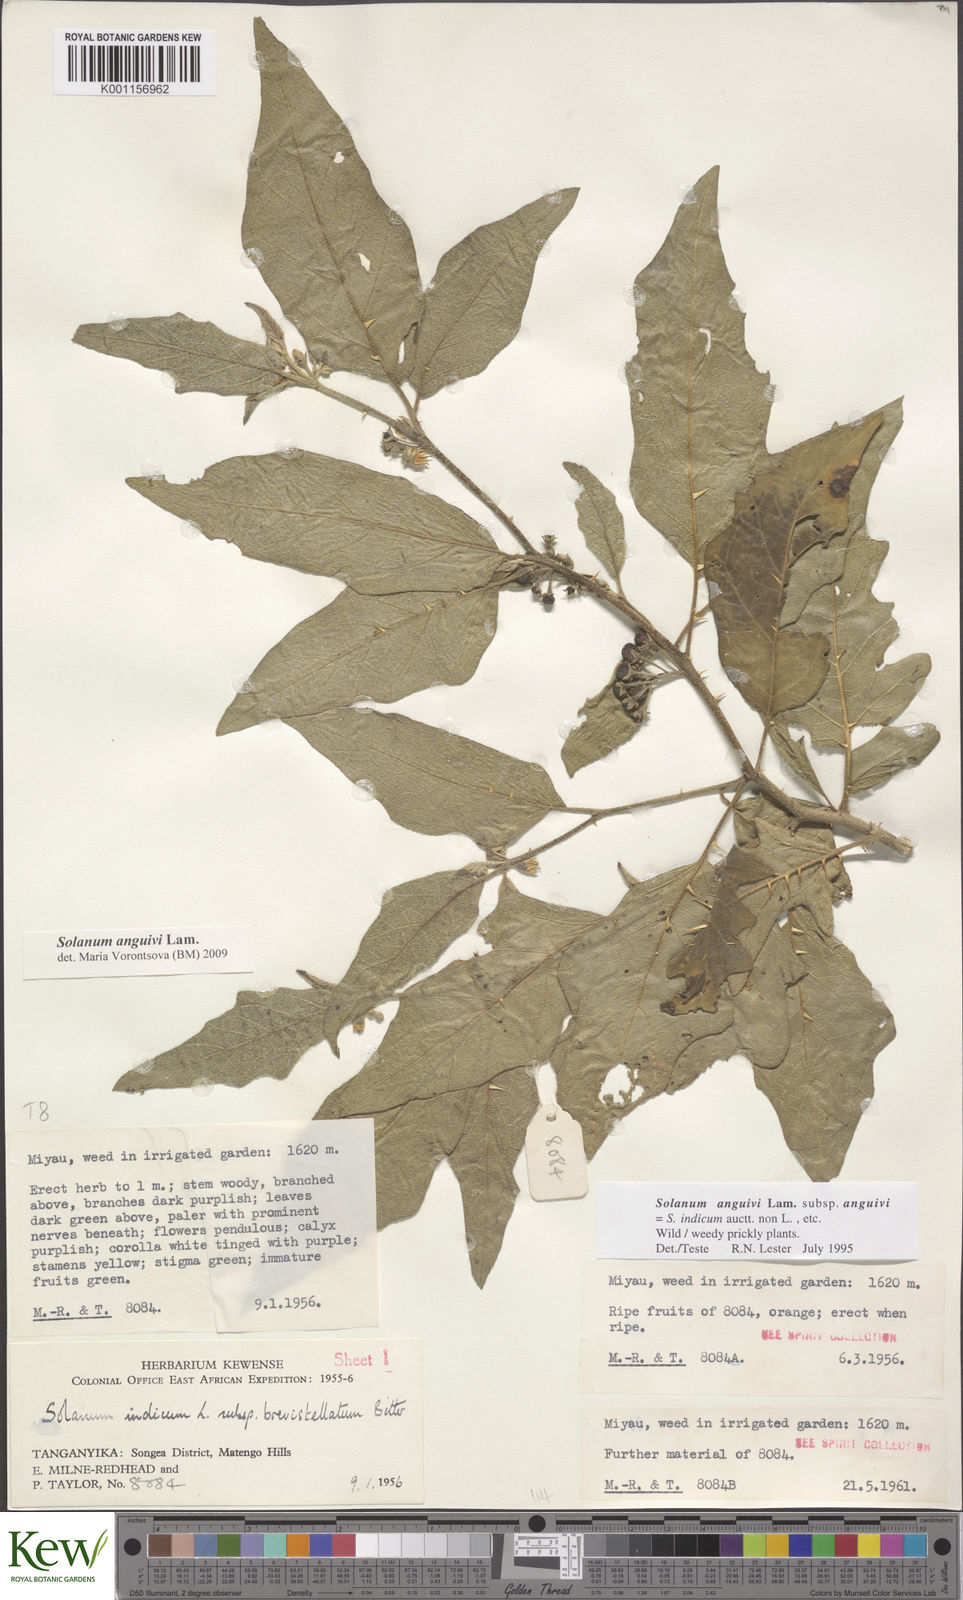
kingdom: Plantae
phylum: Tracheophyta
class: Magnoliopsida
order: Solanales
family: Solanaceae
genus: Solanum
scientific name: Solanum anguivi
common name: Forest bitterberry
